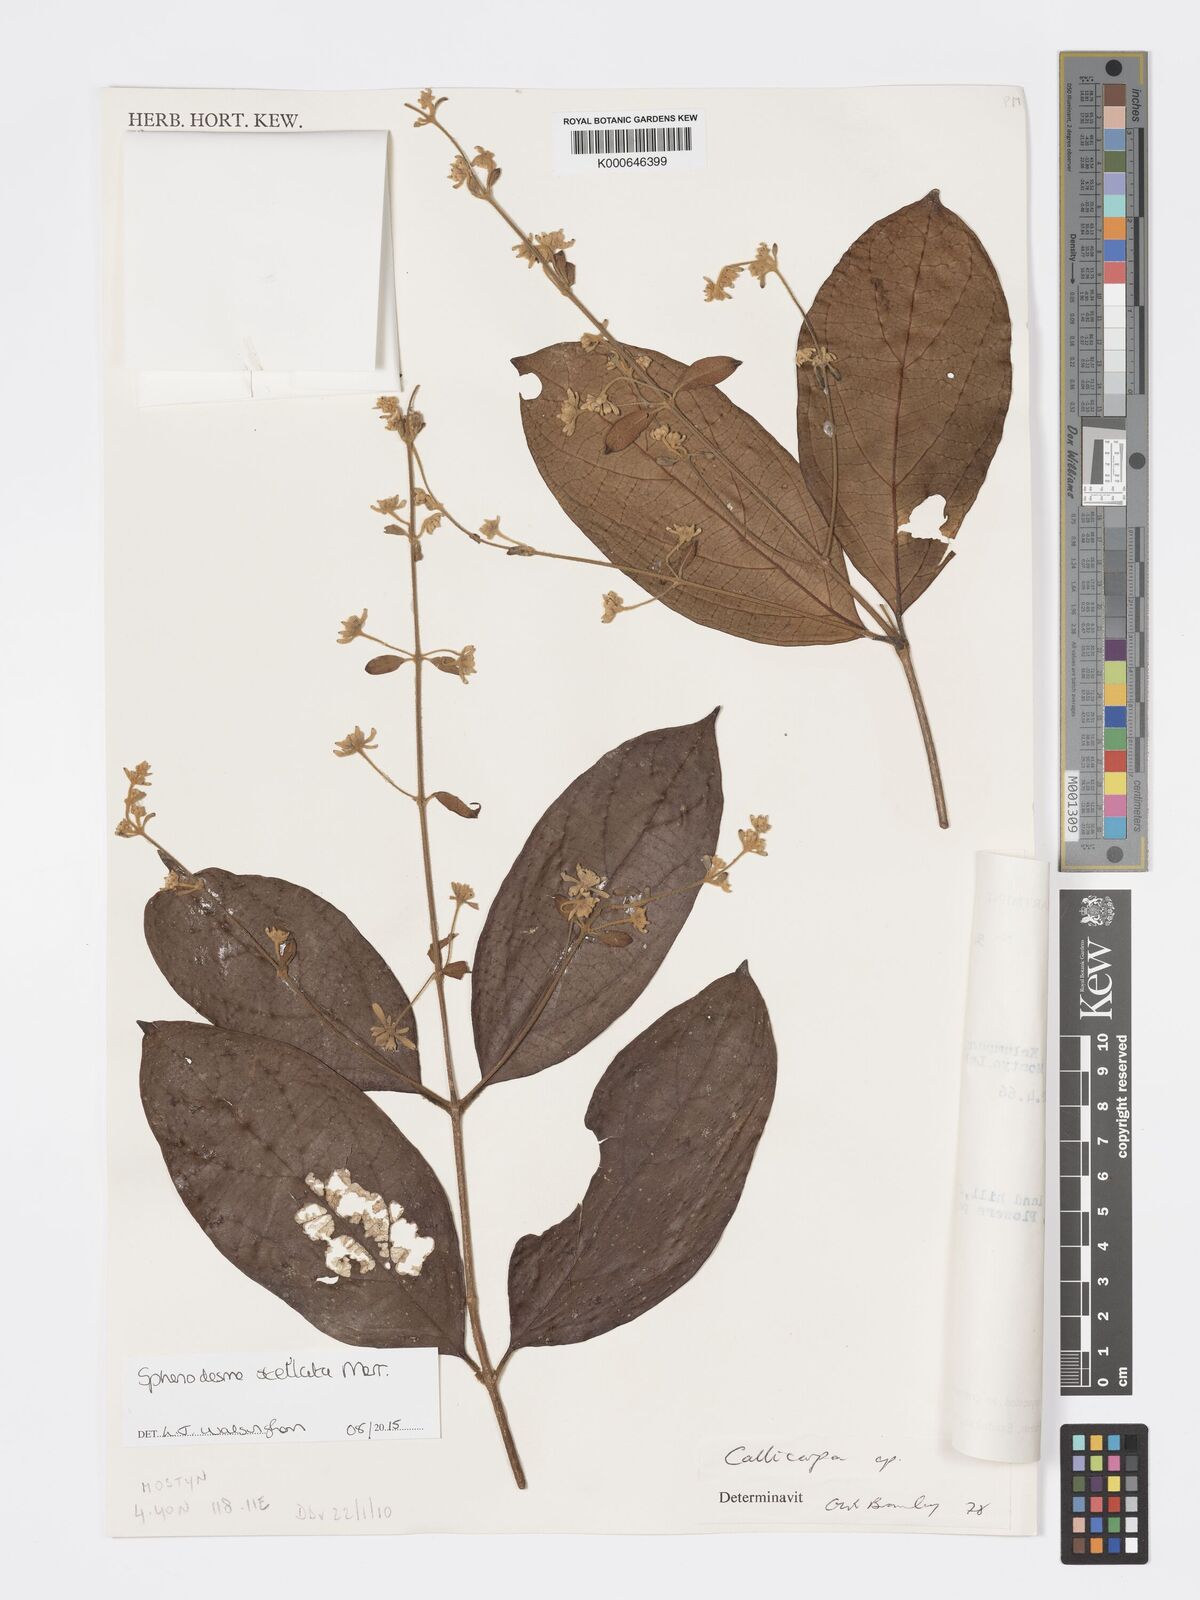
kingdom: Plantae
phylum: Tracheophyta
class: Magnoliopsida
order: Lamiales
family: Lamiaceae
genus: Sphenodesme
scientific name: Sphenodesme stellata
